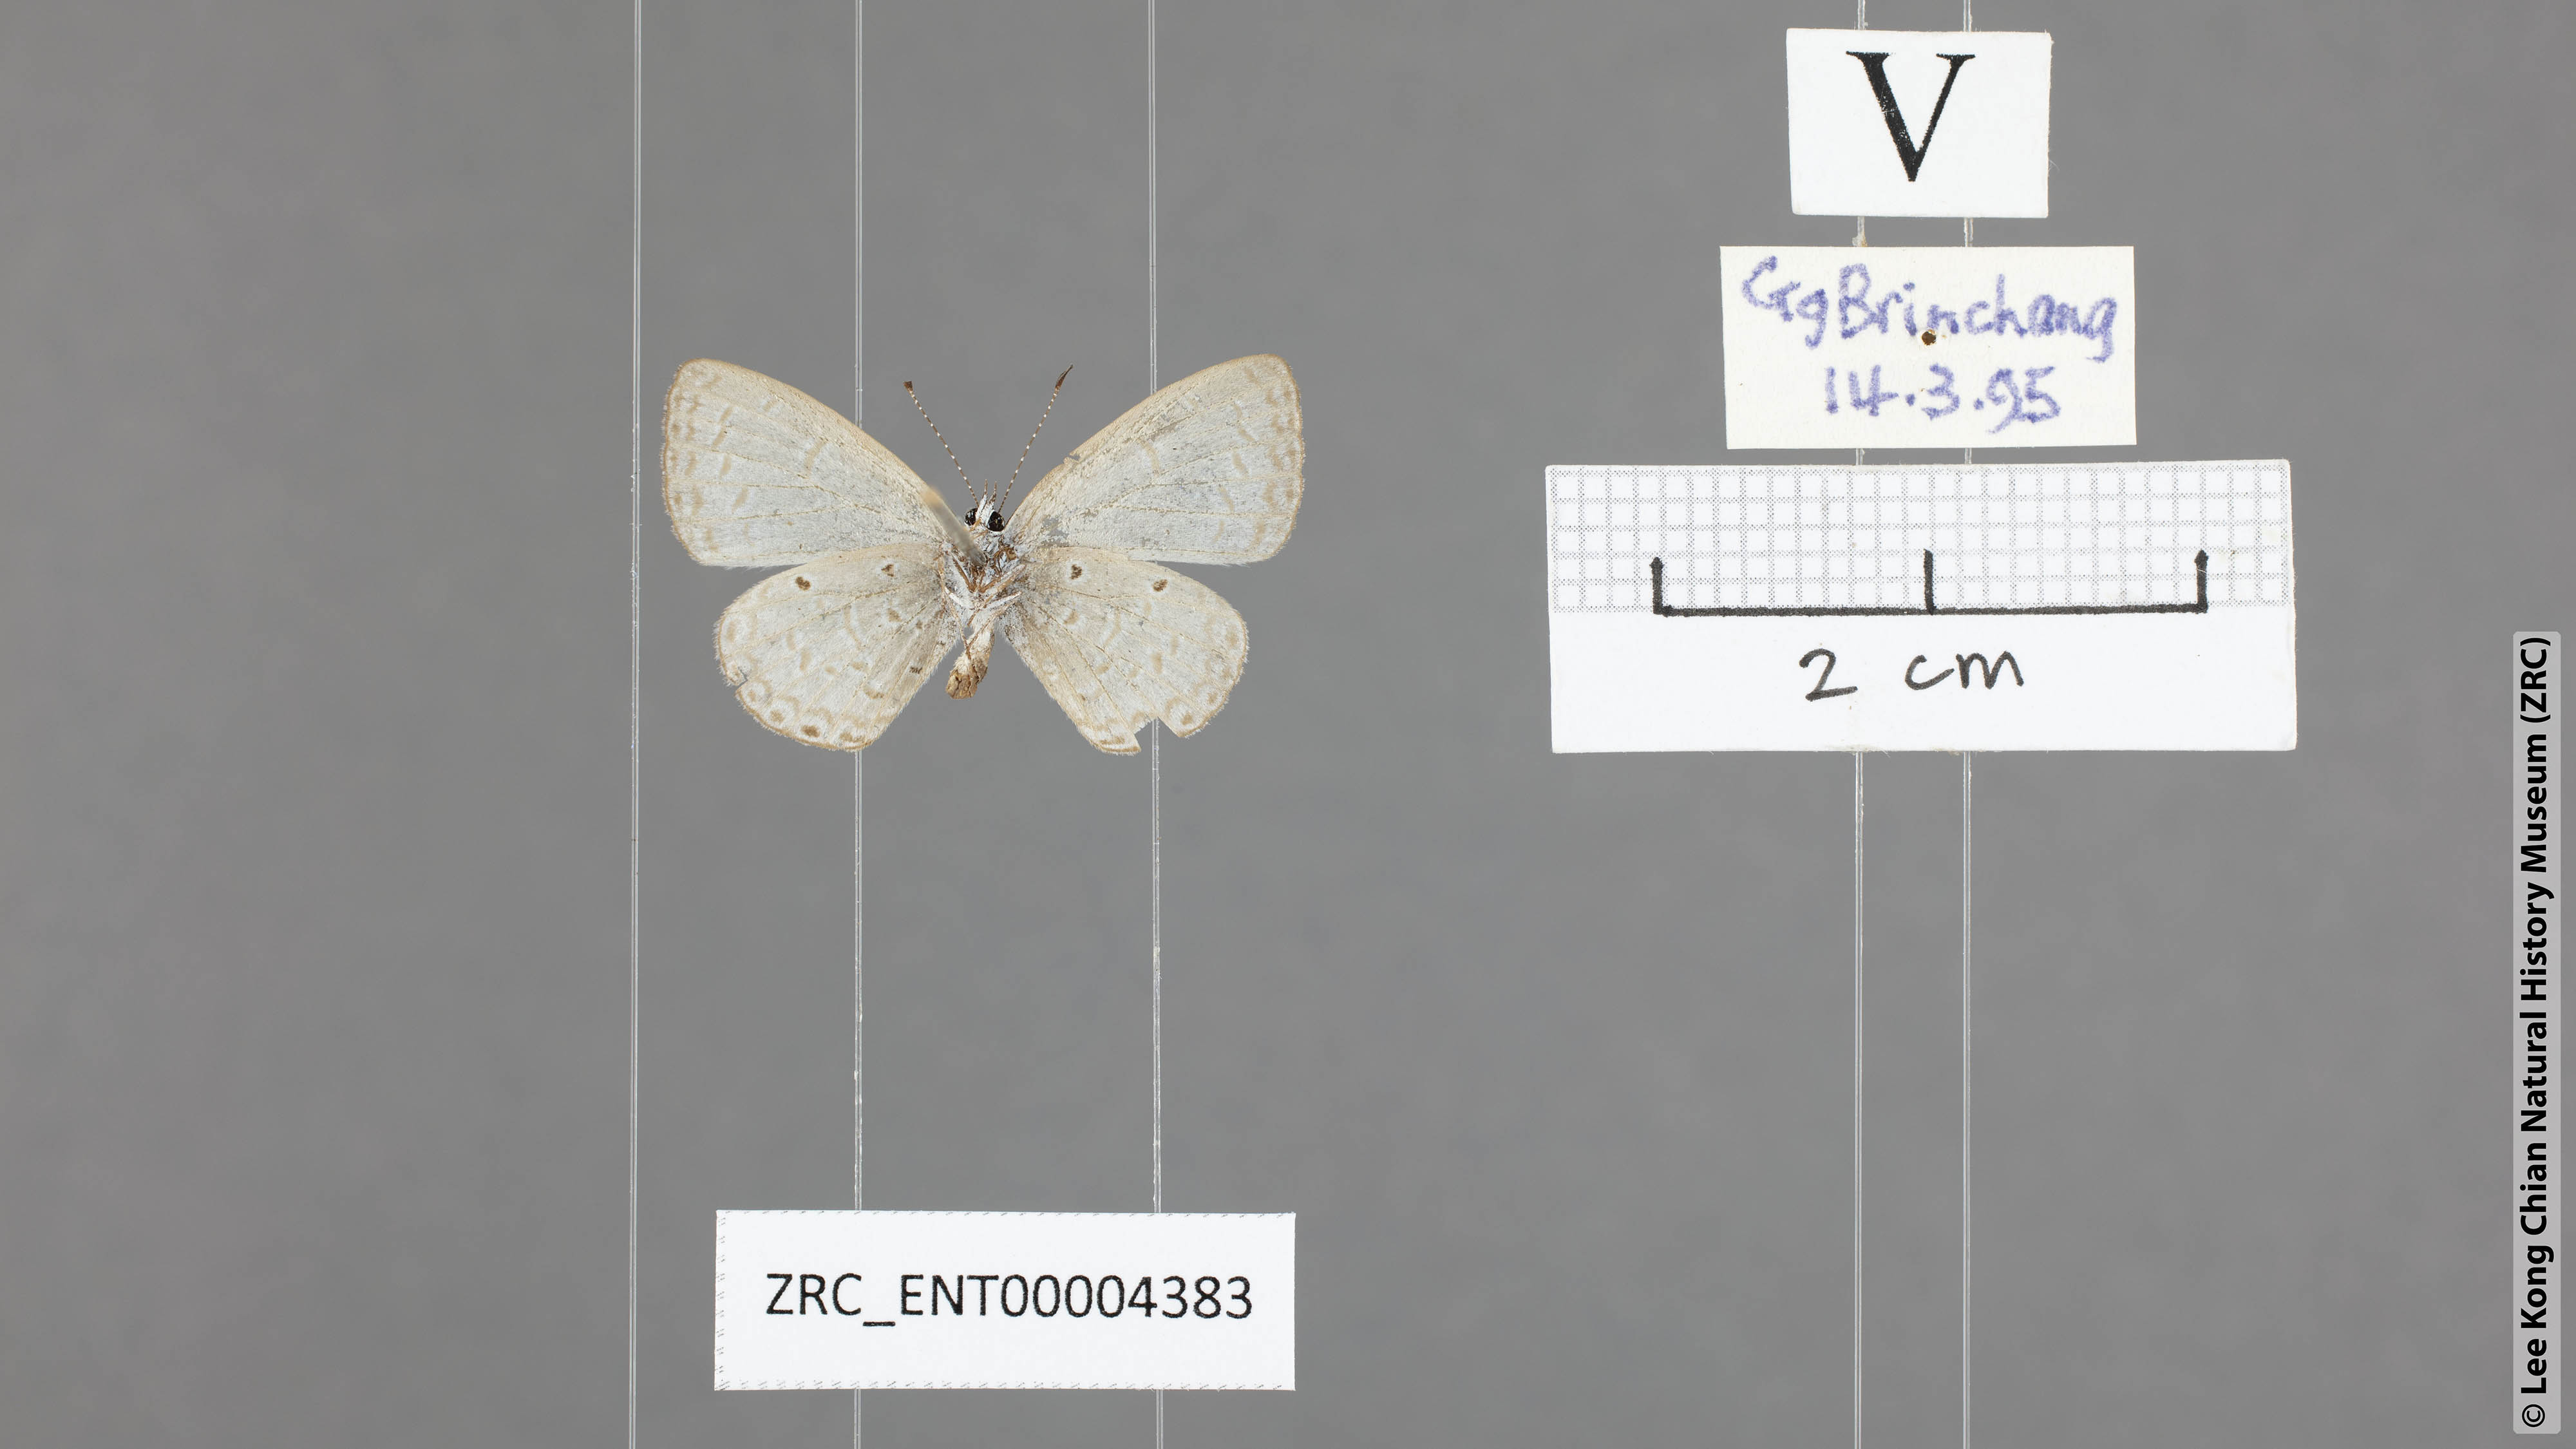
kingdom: Animalia
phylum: Arthropoda
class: Insecta
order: Lepidoptera
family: Lycaenidae
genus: Monodontides
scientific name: Monodontides
